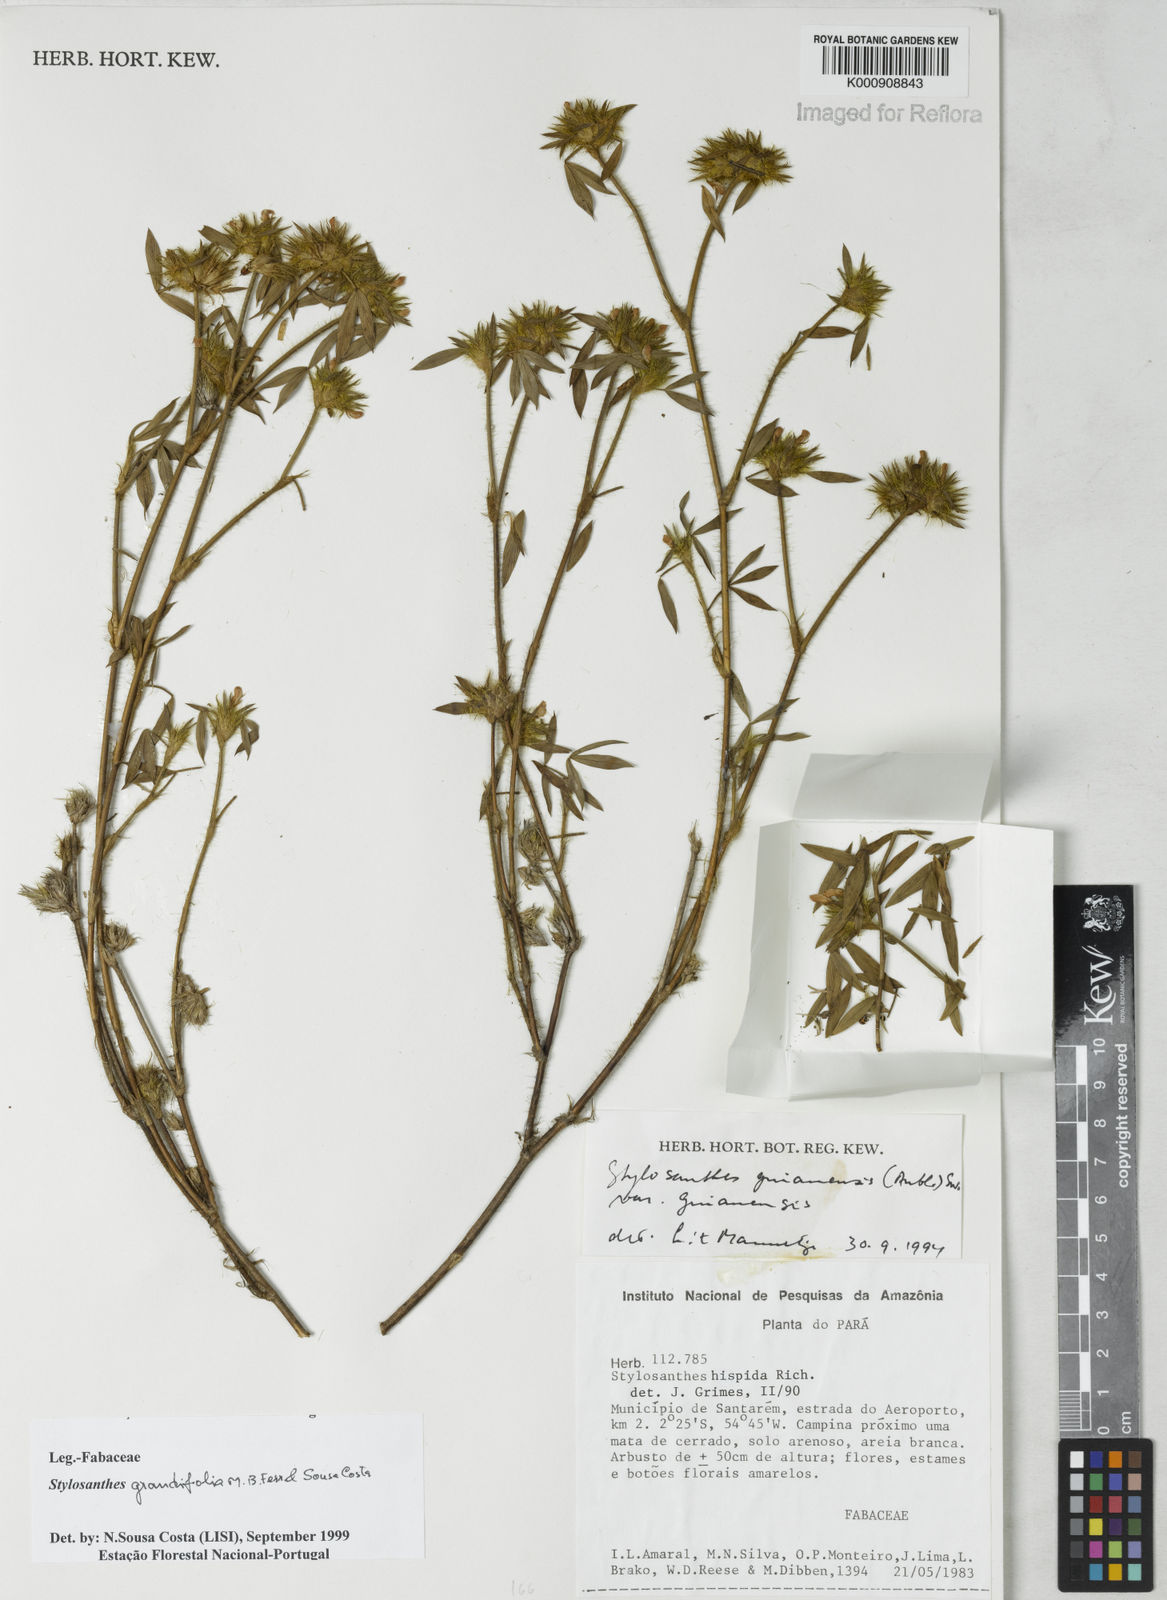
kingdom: Plantae
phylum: Tracheophyta
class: Magnoliopsida
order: Fabales
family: Fabaceae
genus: Stylosanthes
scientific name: Stylosanthes guianensis
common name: Pencil flower
